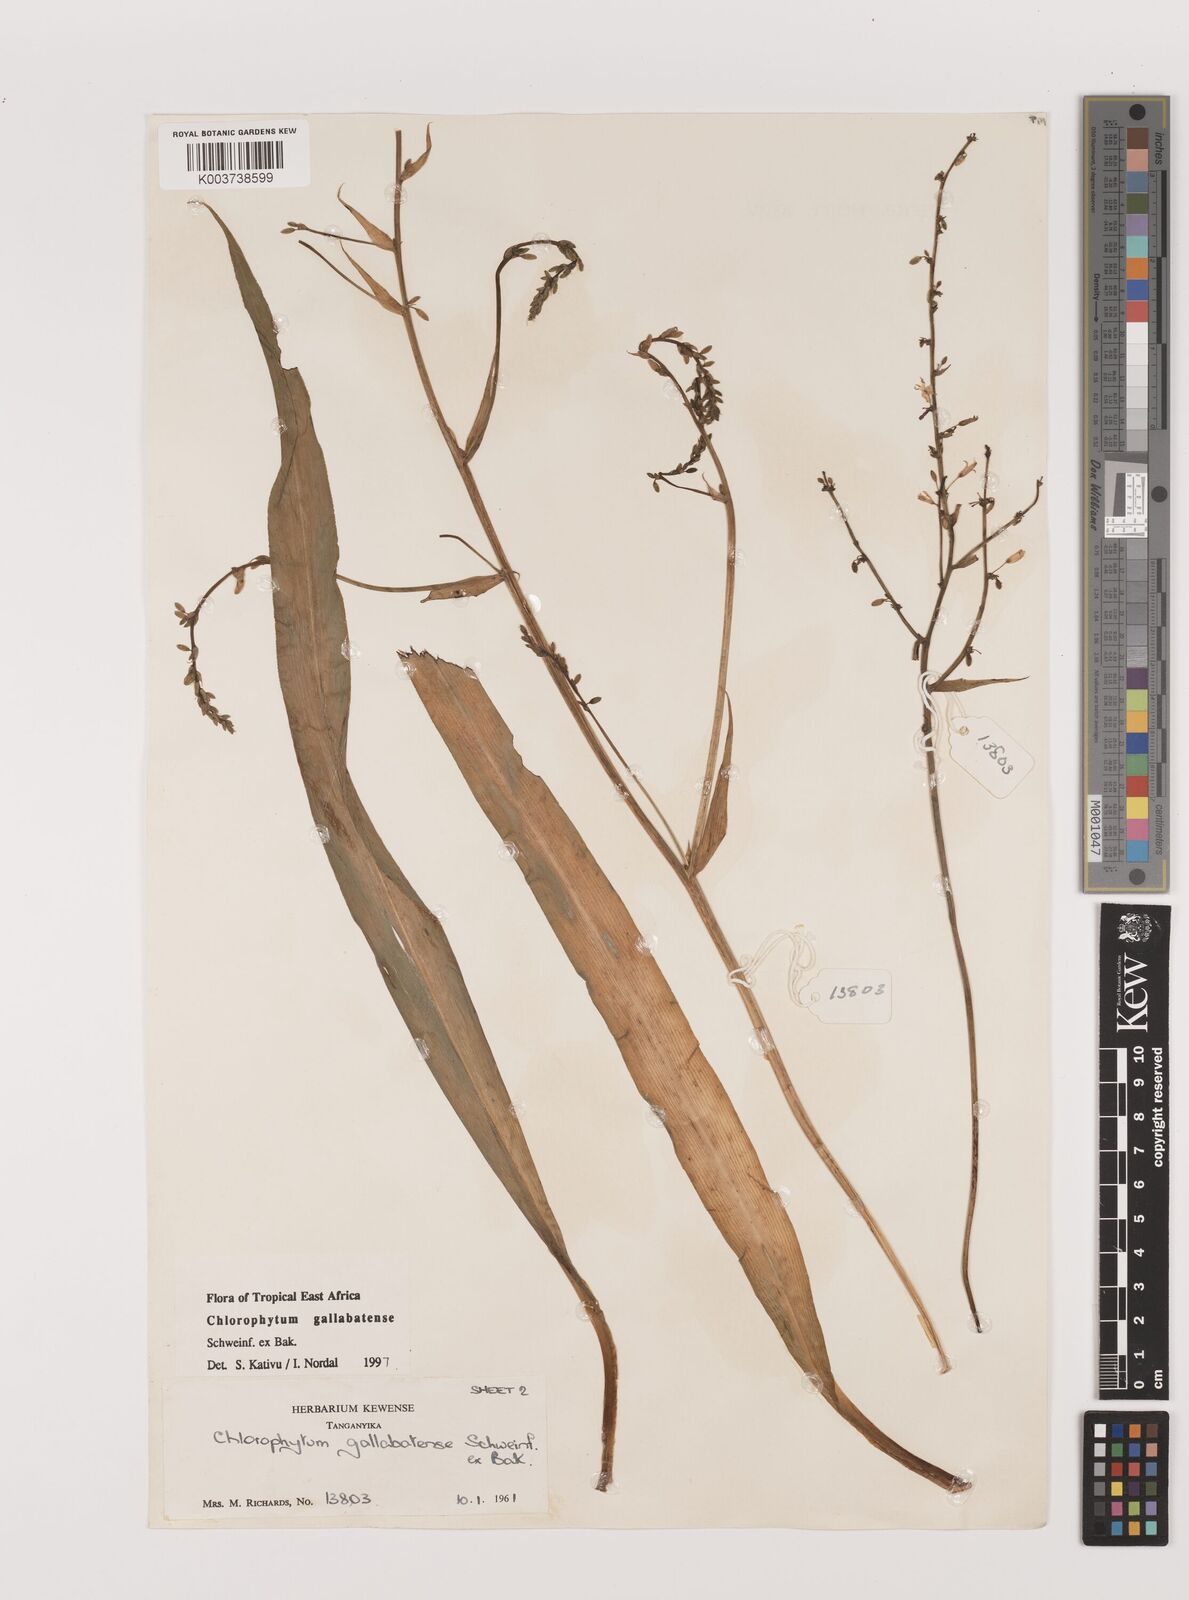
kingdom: Plantae
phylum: Tracheophyta
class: Liliopsida
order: Asparagales
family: Asparagaceae
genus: Chlorophytum
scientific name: Chlorophytum gallabatense
